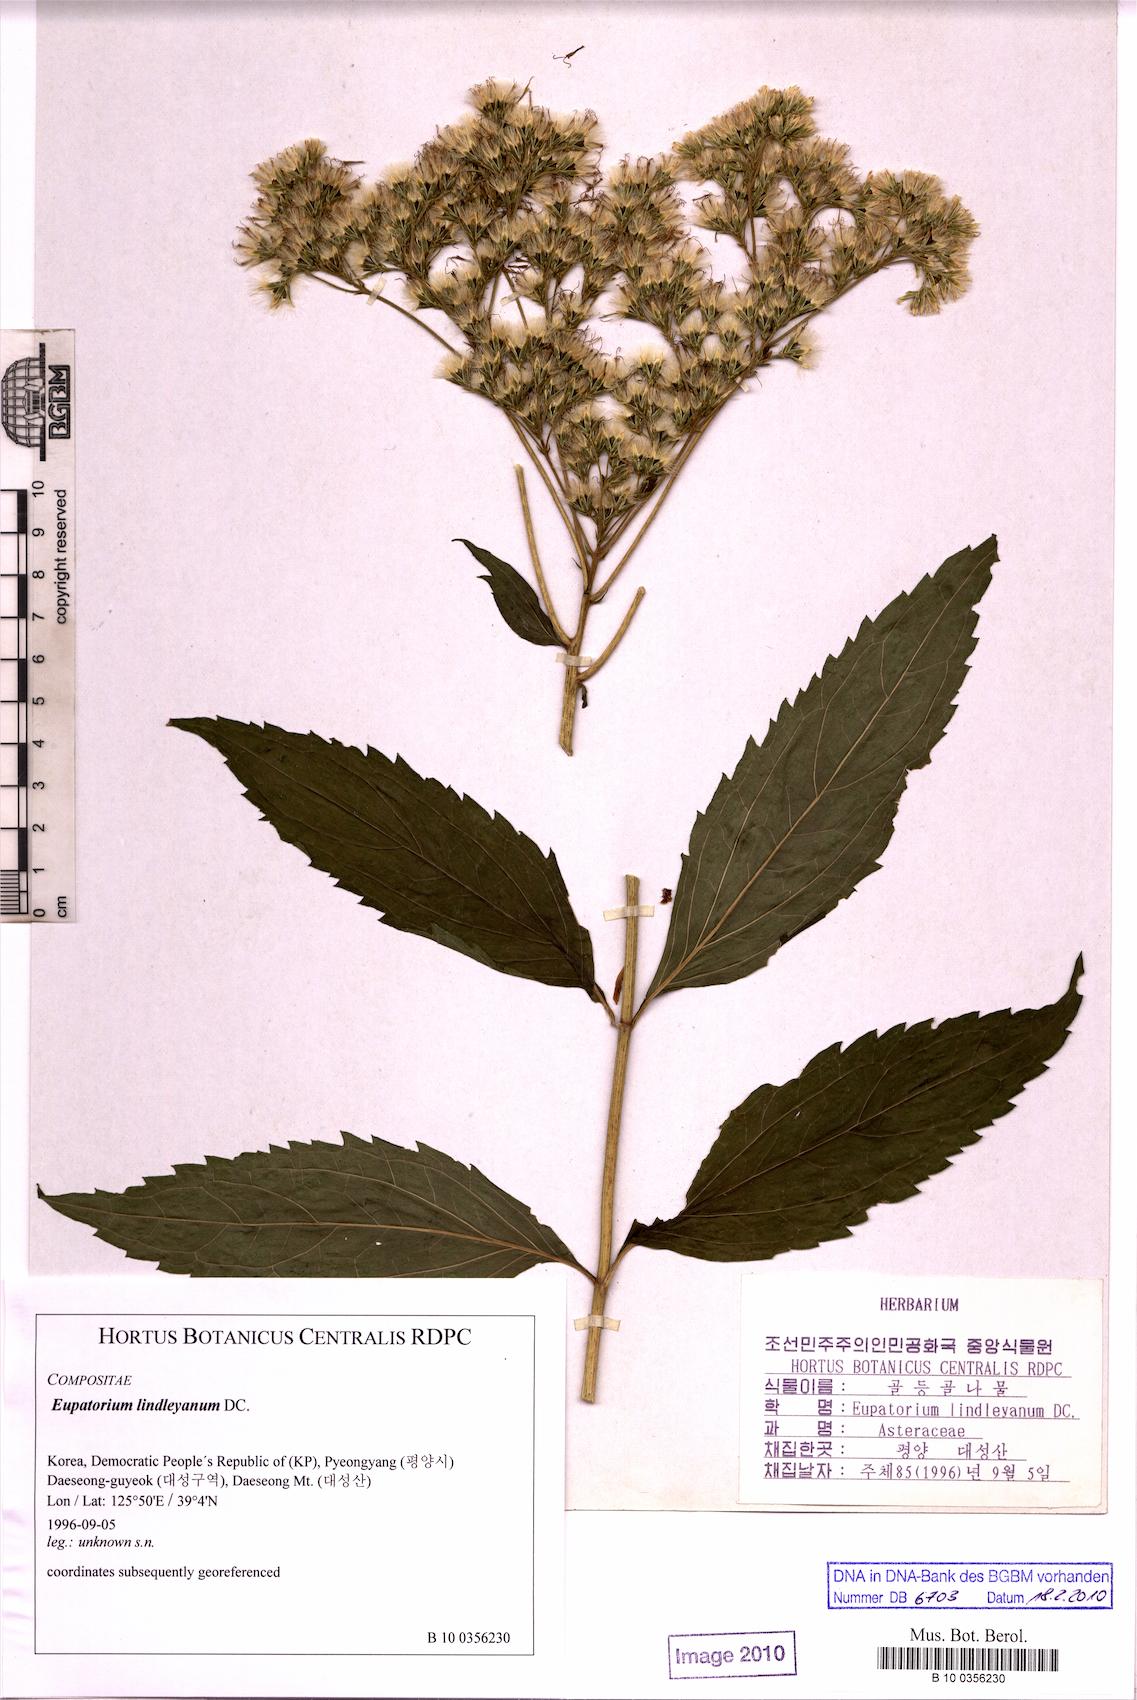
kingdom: Plantae
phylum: Tracheophyta
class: Magnoliopsida
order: Asterales
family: Asteraceae
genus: Eupatorium
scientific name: Eupatorium lindleyanum
